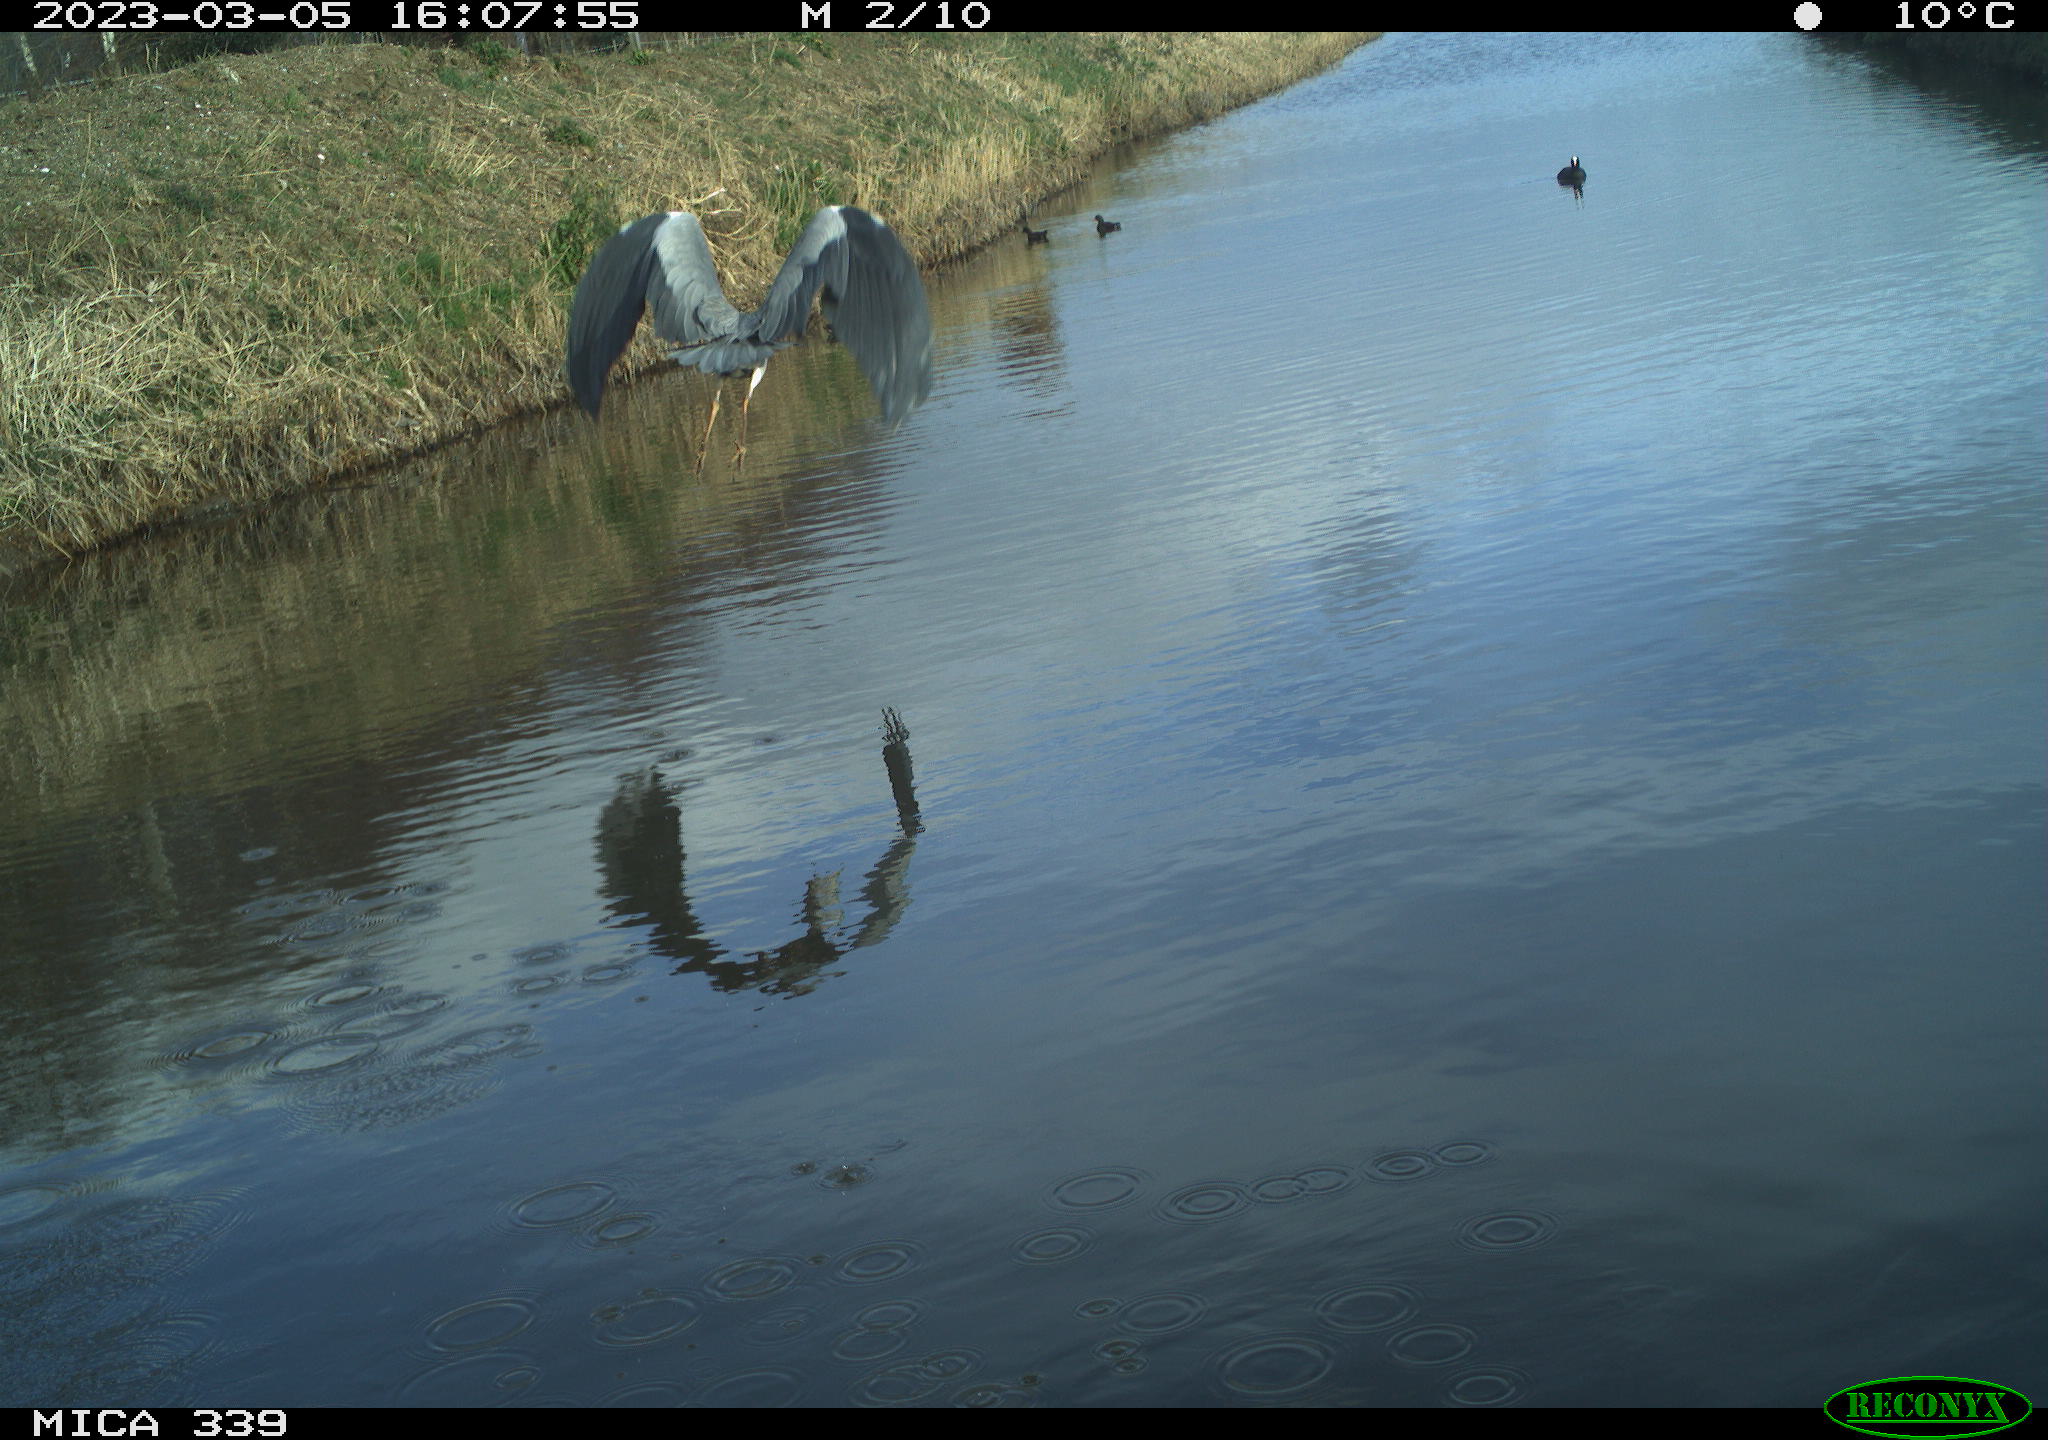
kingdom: Animalia
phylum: Chordata
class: Aves
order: Pelecaniformes
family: Ardeidae
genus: Ardea
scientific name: Ardea cinerea
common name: Grey heron
